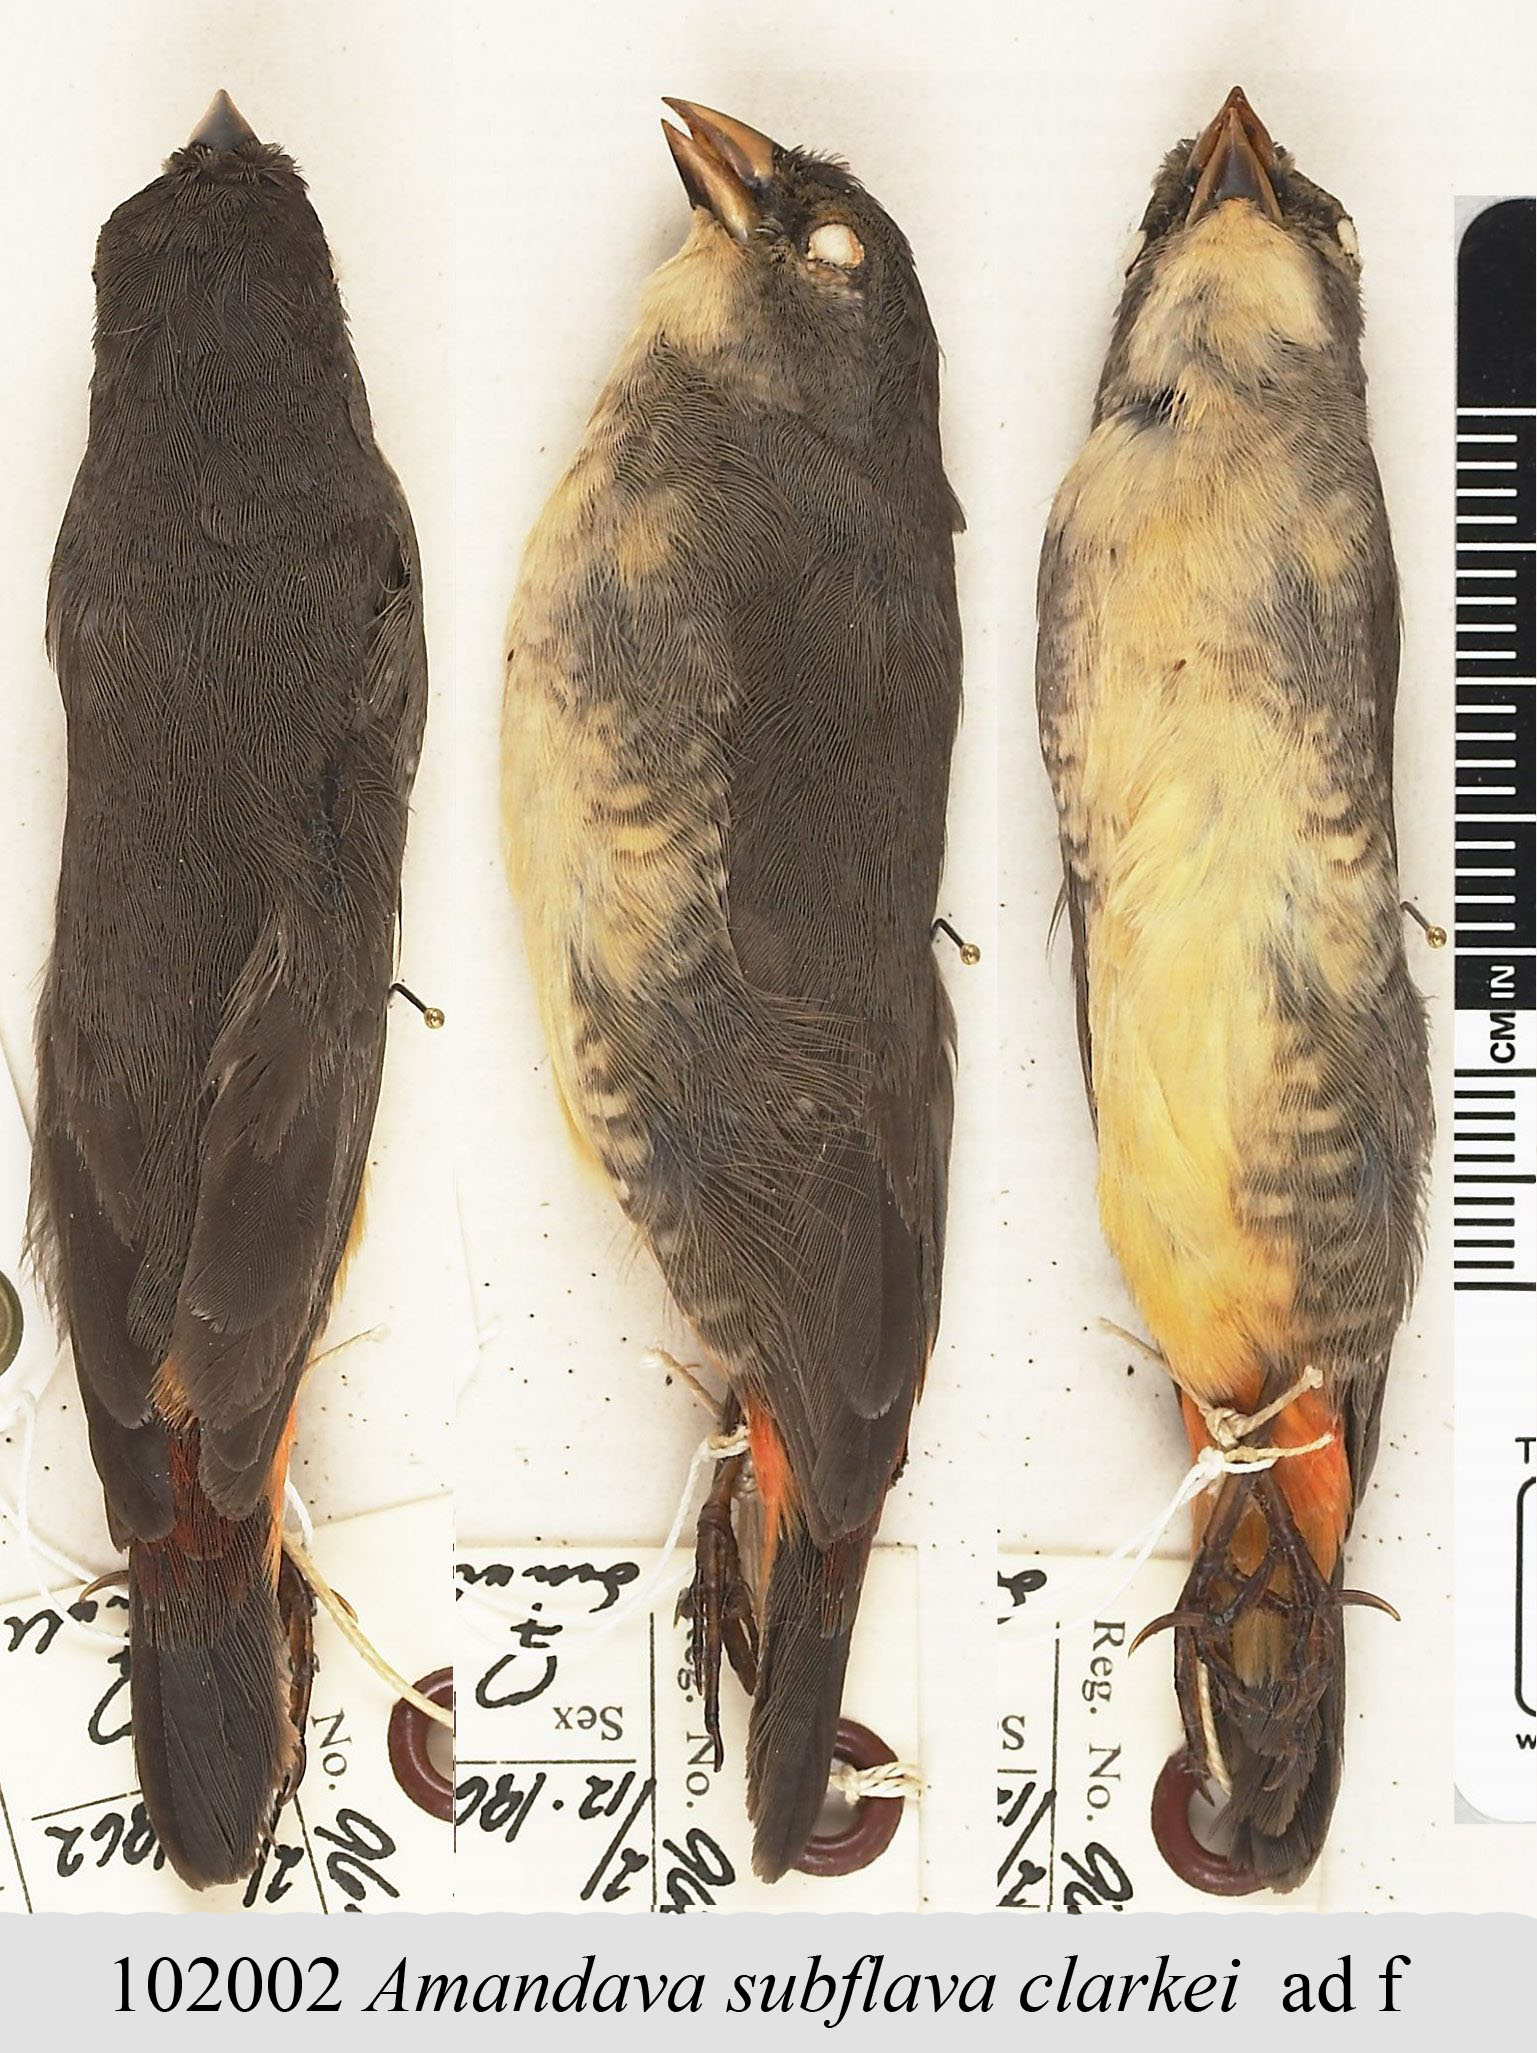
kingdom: Animalia
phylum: Chordata
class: Aves
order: Passeriformes
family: Estrildidae
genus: Amandava
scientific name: Amandava subflava
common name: Orange-breasted waxbill
